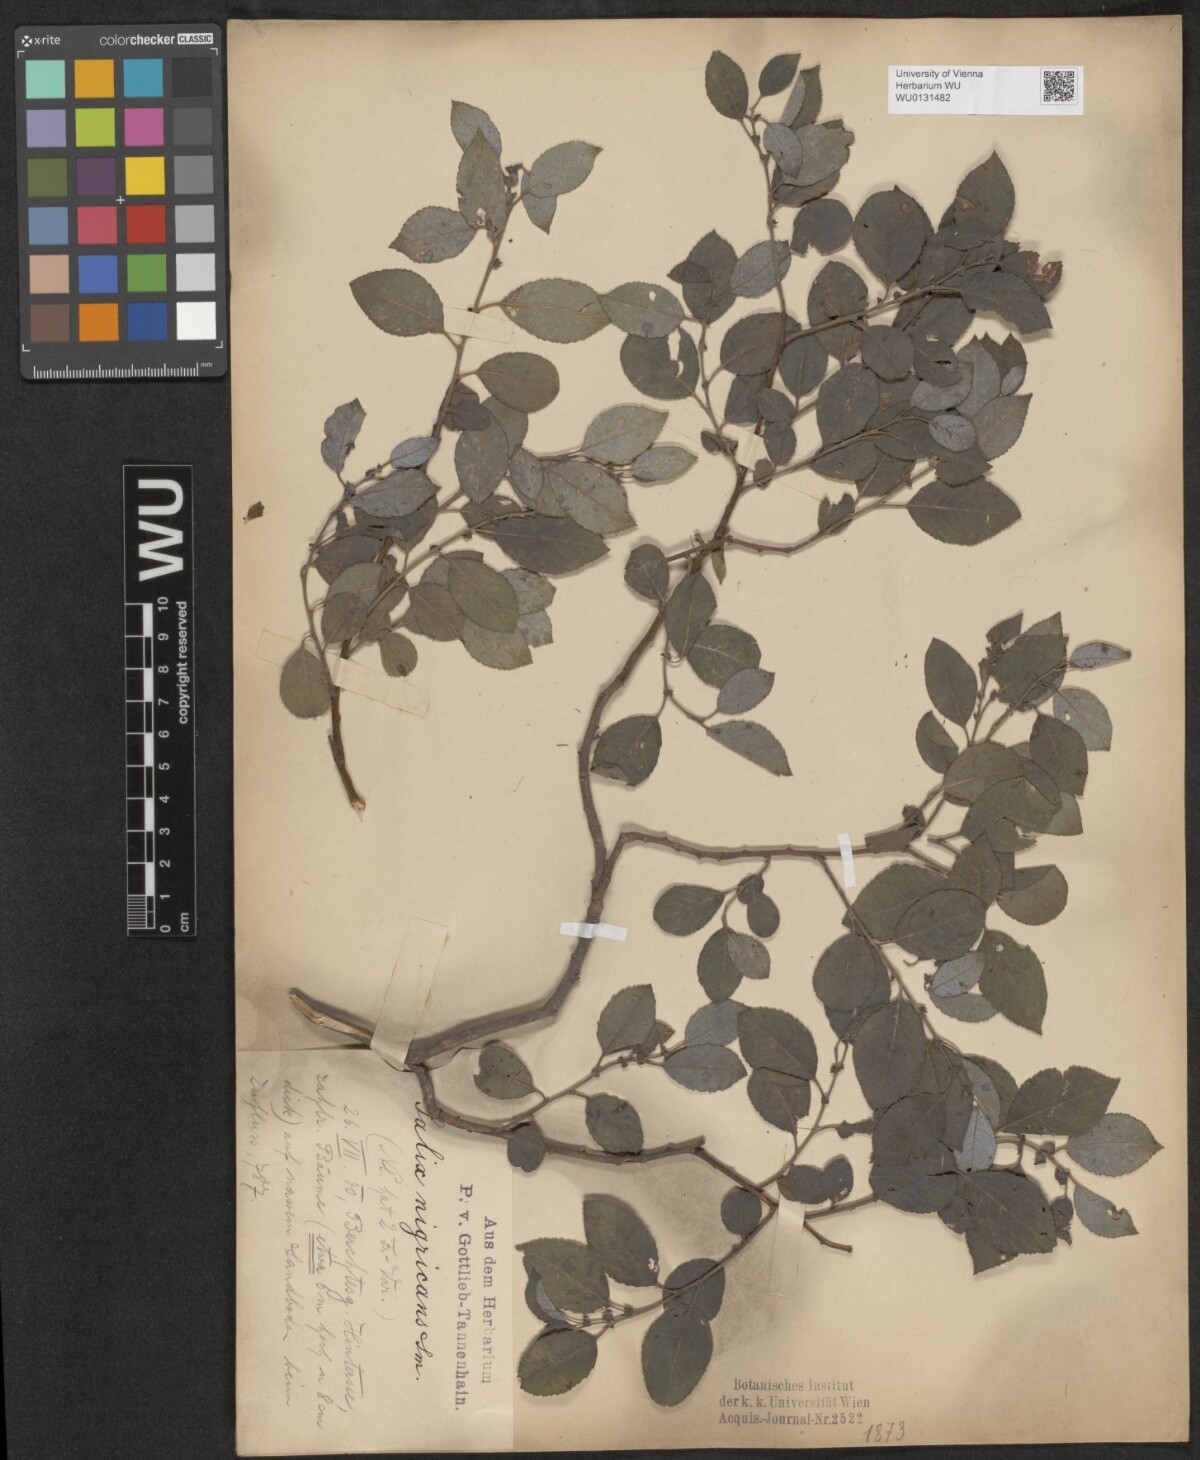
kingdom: Plantae
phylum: Tracheophyta
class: Magnoliopsida
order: Malpighiales
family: Salicaceae
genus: Salix
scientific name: Salix myrsinifolia
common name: Dark-leaved willow
